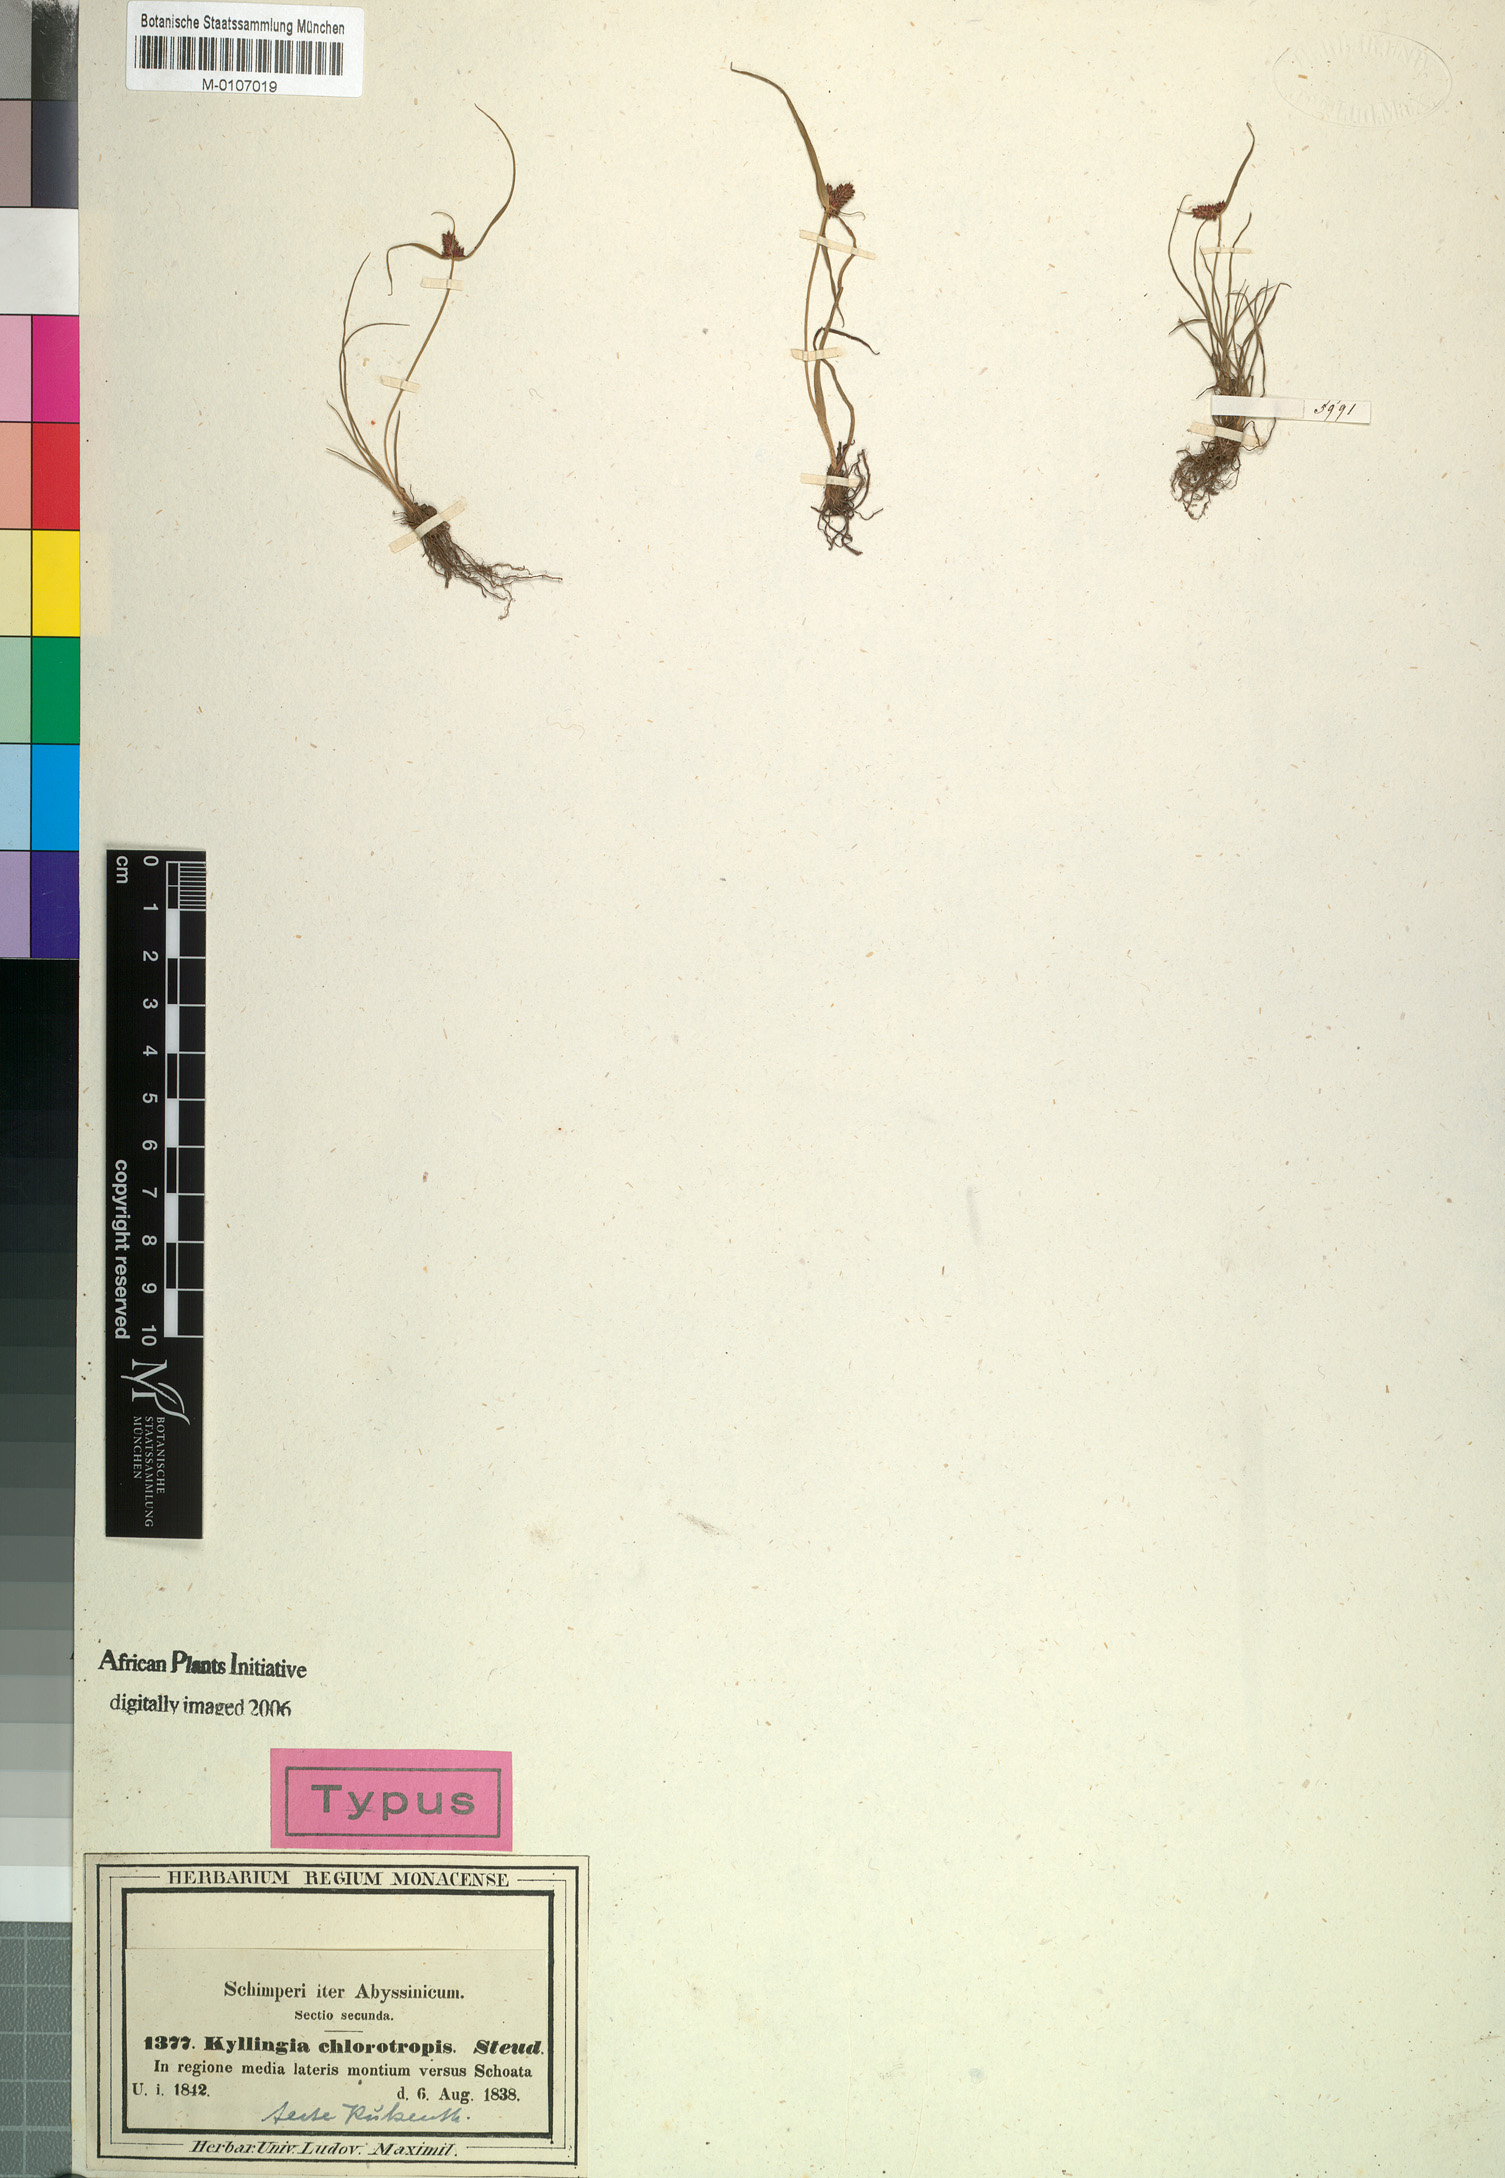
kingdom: Plantae
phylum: Tracheophyta
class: Liliopsida
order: Poales
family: Cyperaceae
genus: Cyperus
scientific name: Cyperus chlorotropis
